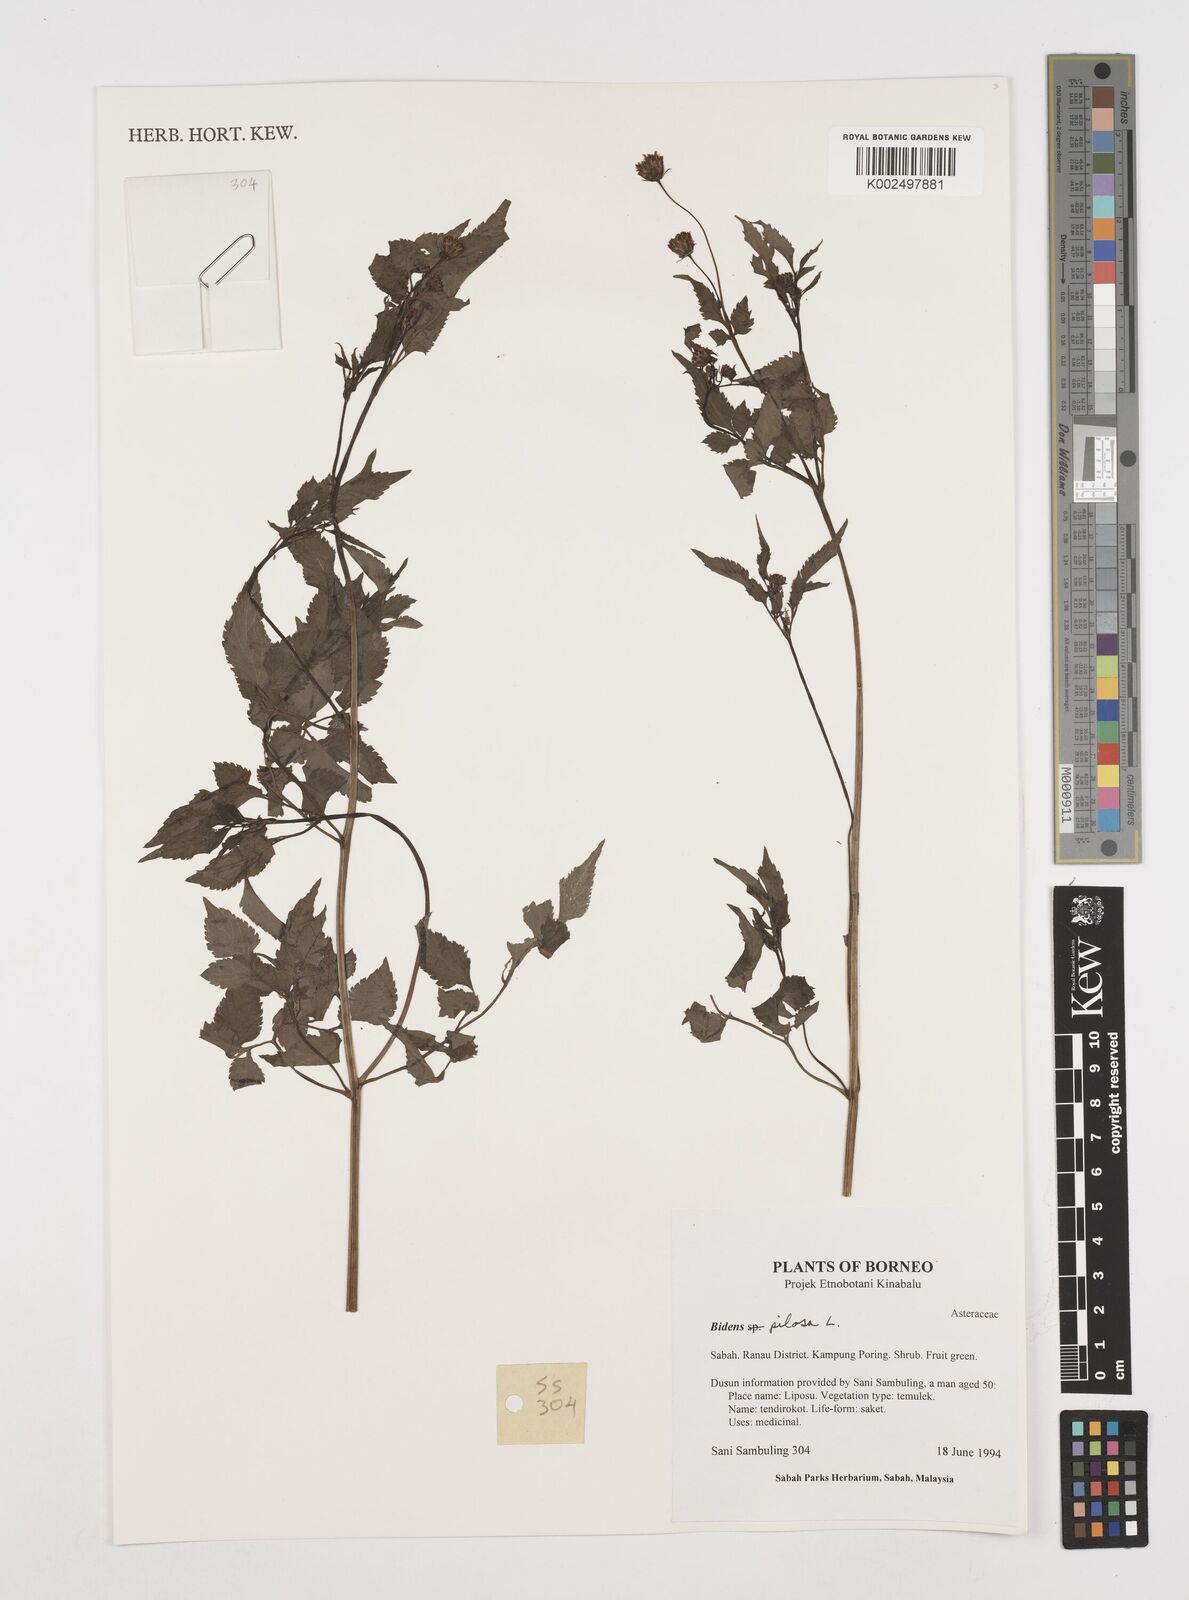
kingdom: Plantae
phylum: Tracheophyta
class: Magnoliopsida
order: Asterales
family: Asteraceae
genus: Bidens
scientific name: Bidens pilosa
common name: Black-jack
